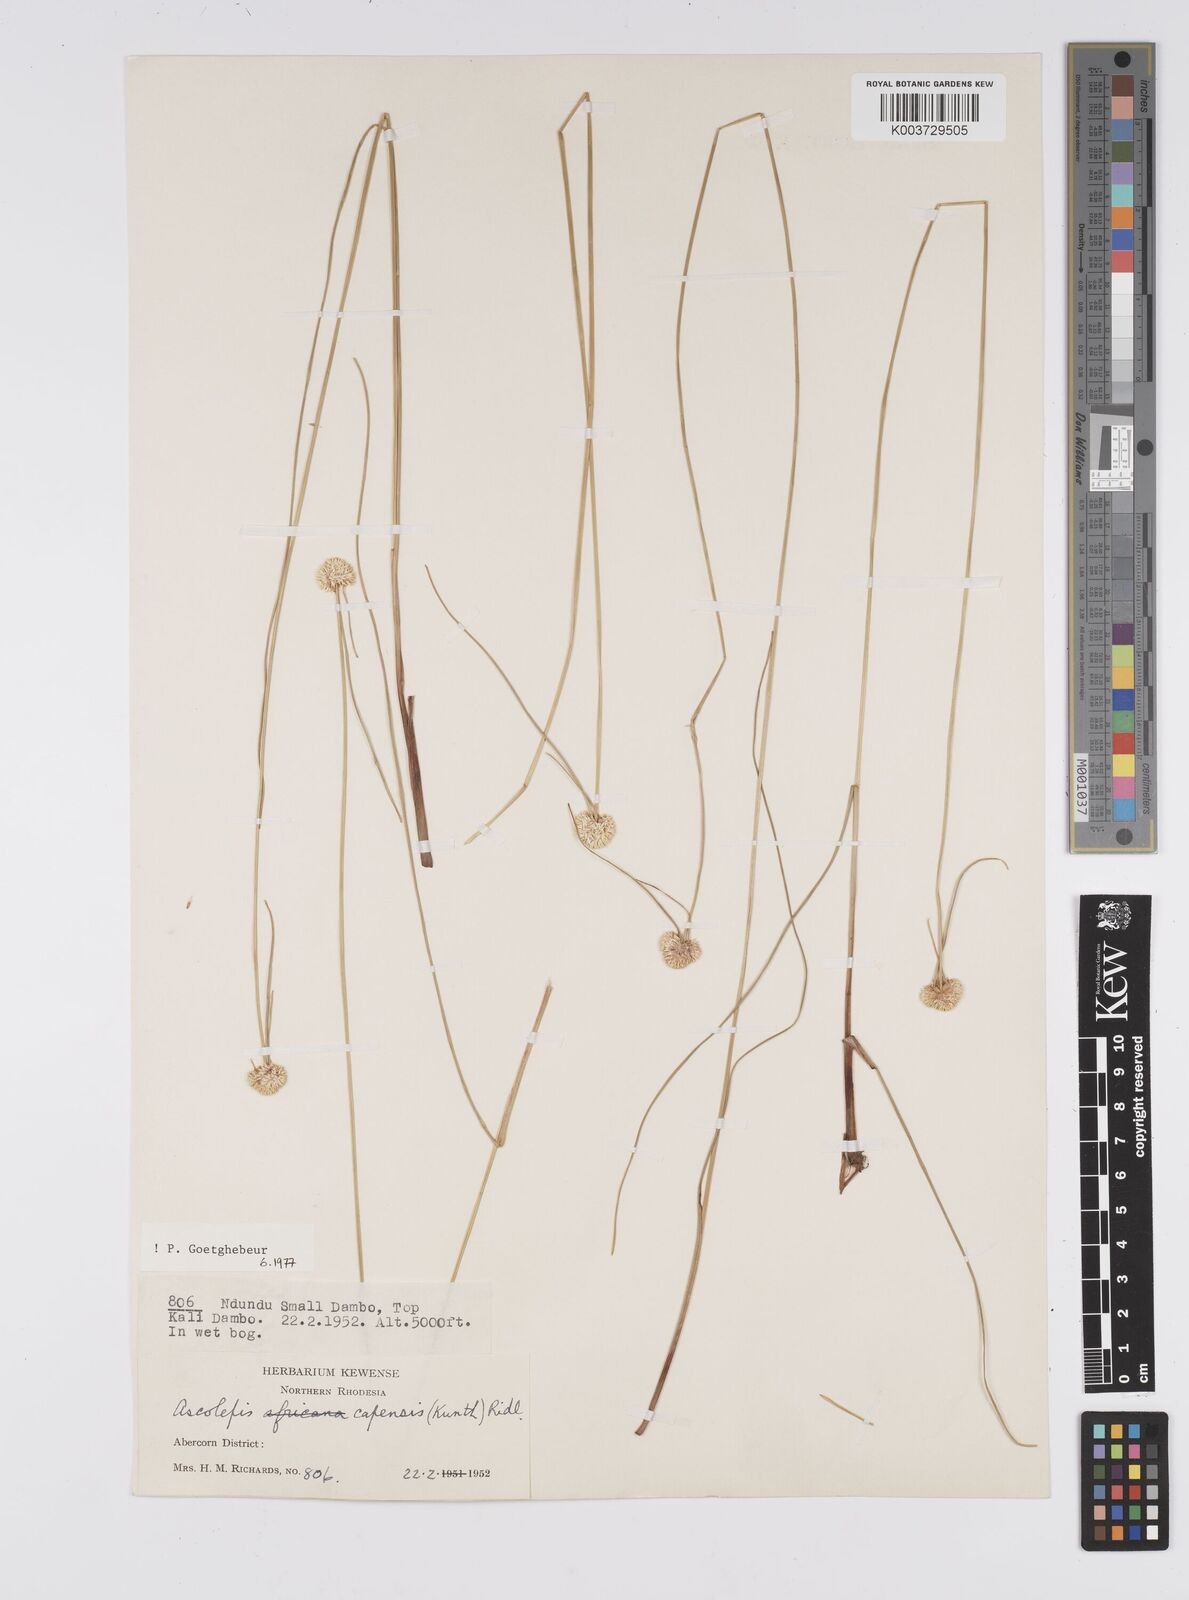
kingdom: Plantae
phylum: Tracheophyta
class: Liliopsida
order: Poales
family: Cyperaceae
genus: Cyperus
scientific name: Cyperus
